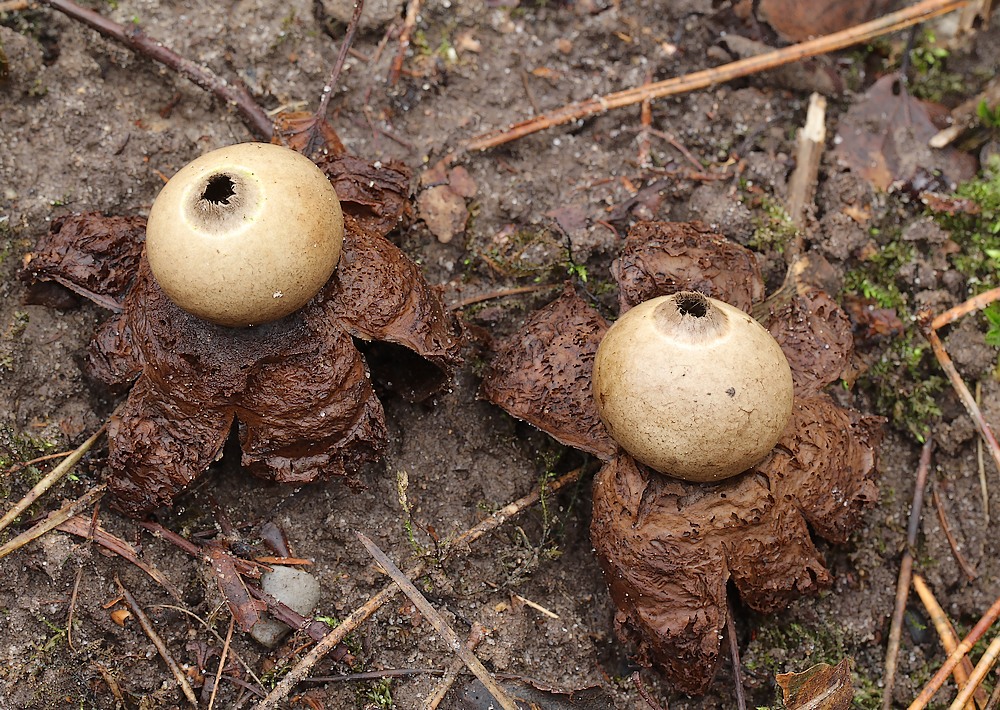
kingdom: Fungi
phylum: Basidiomycota
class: Agaricomycetes
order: Geastrales
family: Geastraceae
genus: Geastrum
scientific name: Geastrum michelianum
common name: kødet stjernebold
